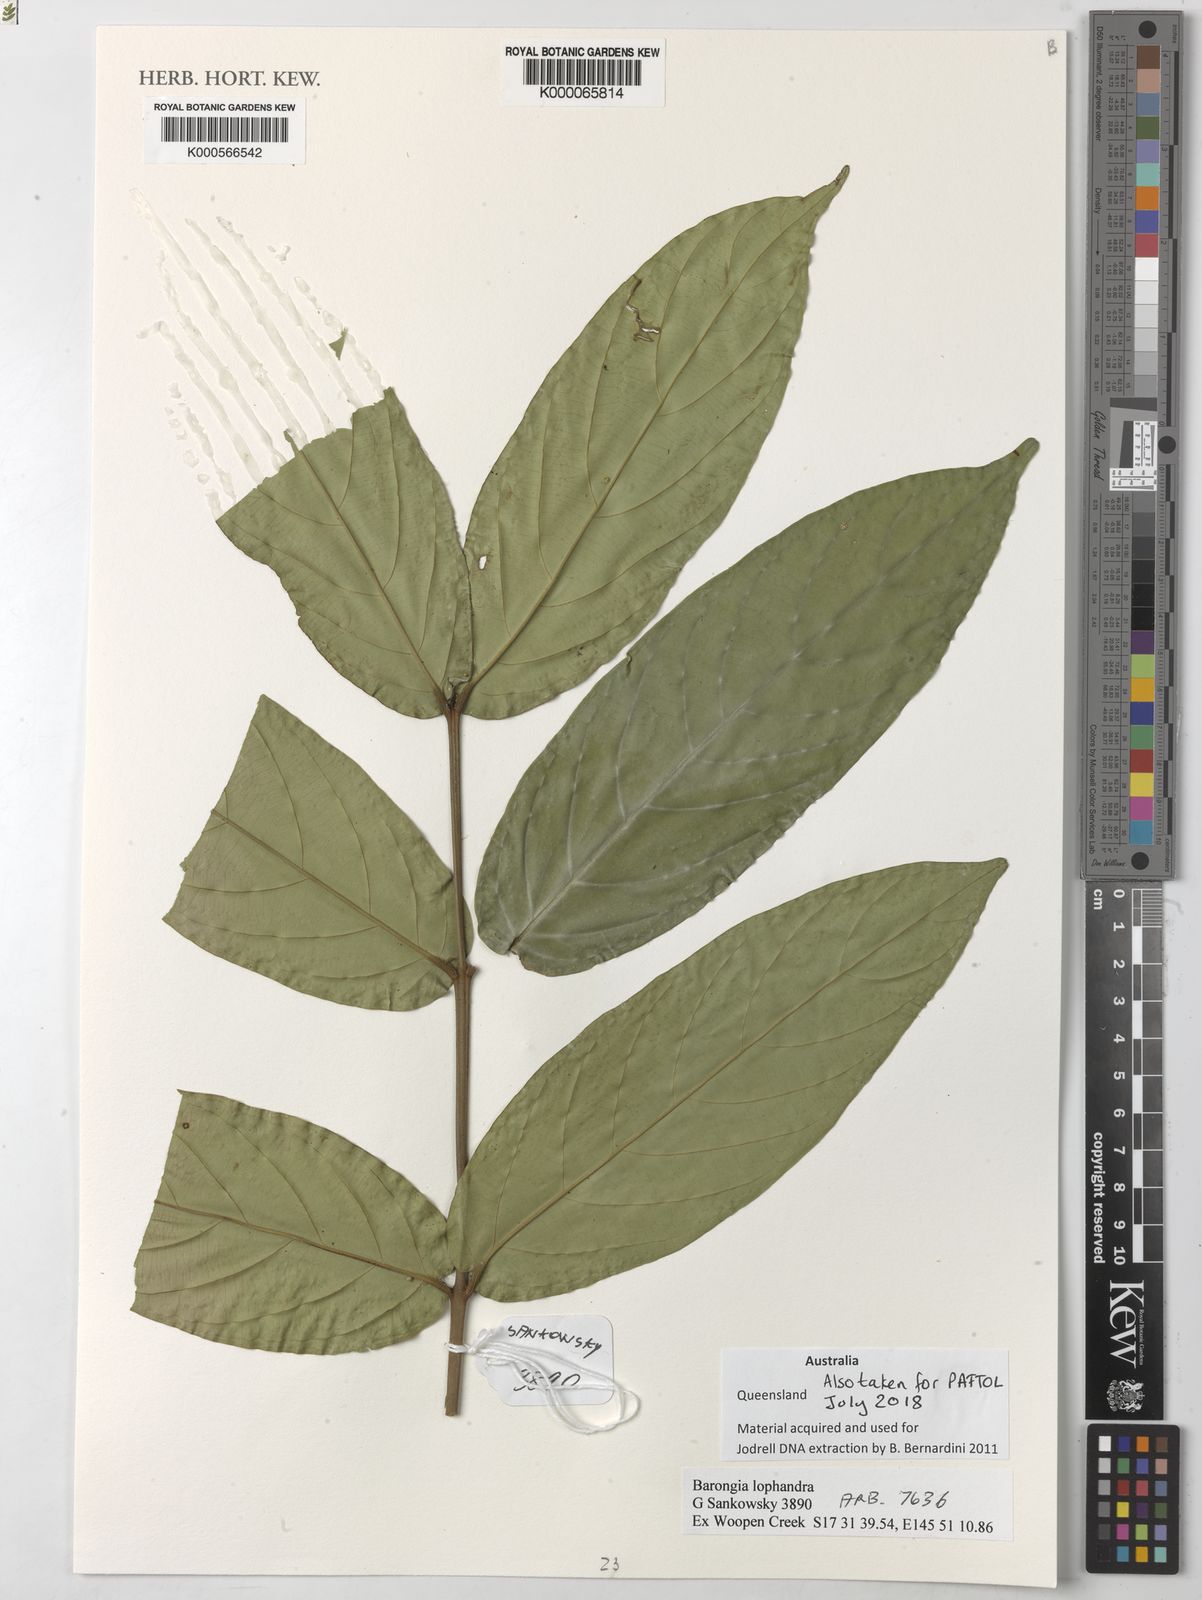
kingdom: Plantae
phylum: Tracheophyta
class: Magnoliopsida
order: Myrtales
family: Myrtaceae
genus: Barongia
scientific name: Barongia lophandra
